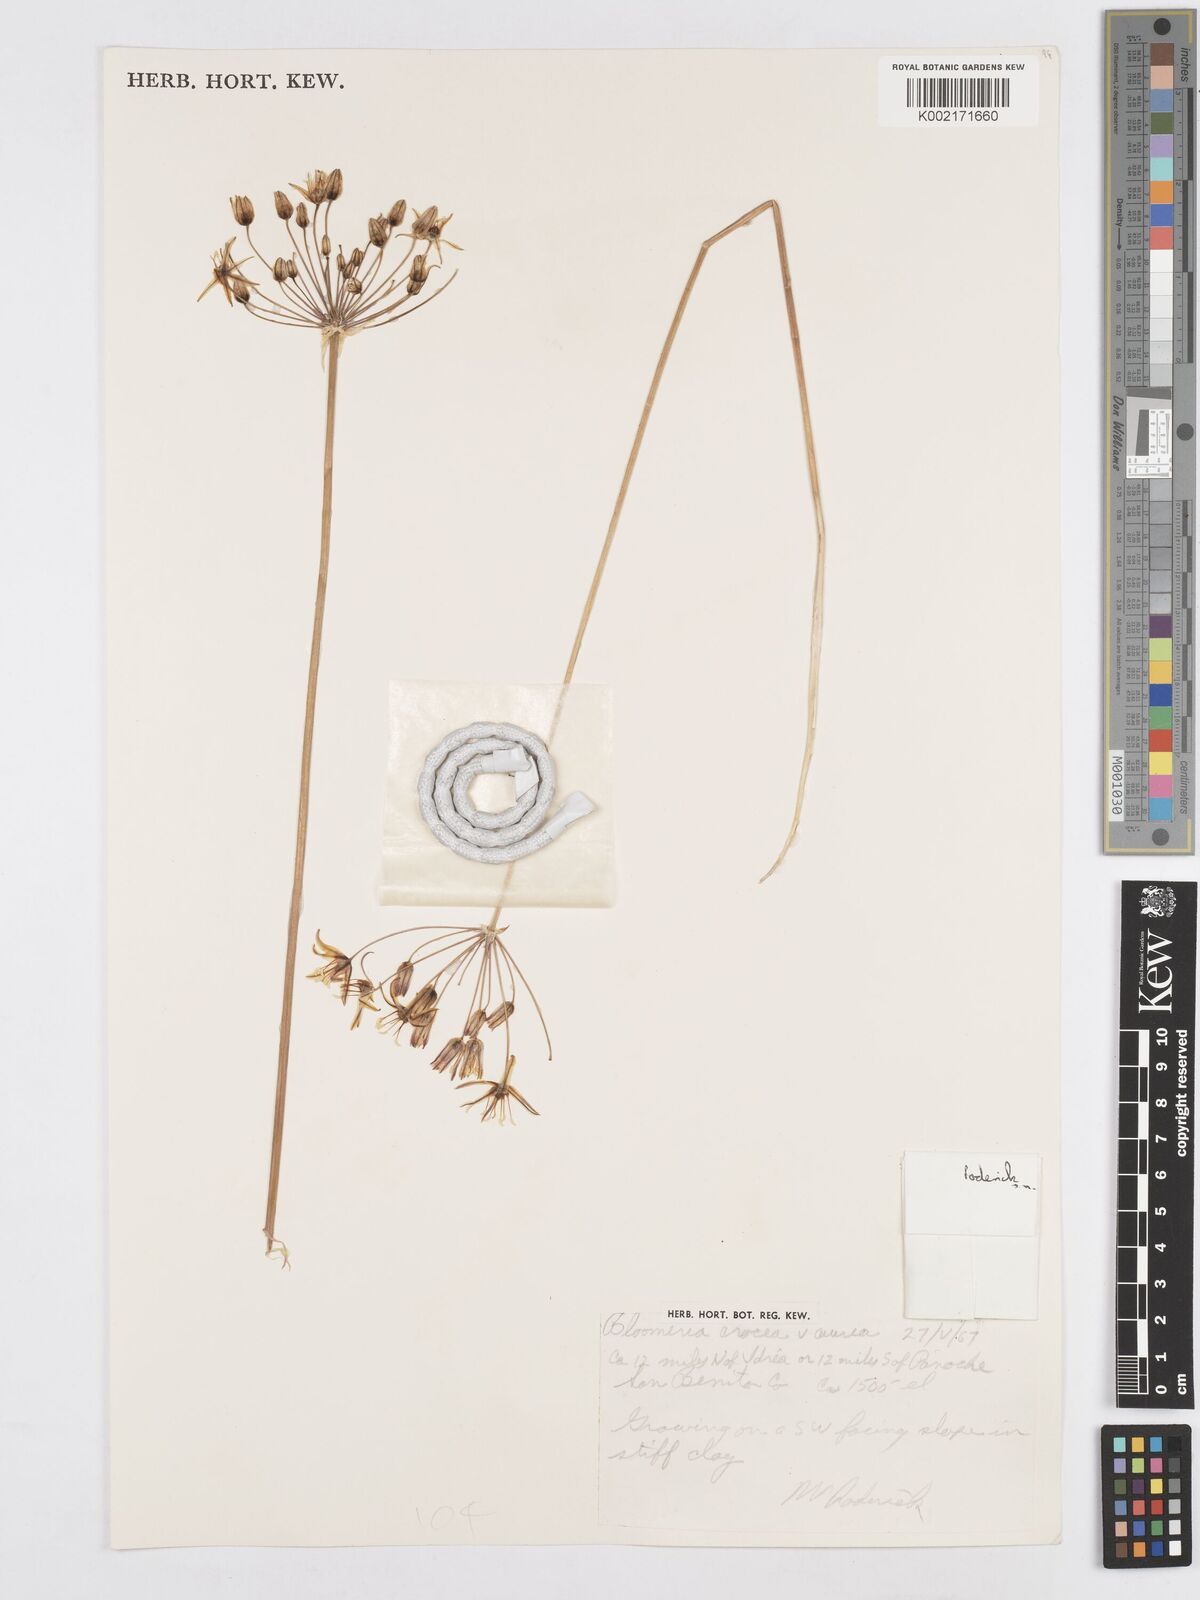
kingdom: Plantae
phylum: Tracheophyta
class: Liliopsida
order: Asparagales
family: Asparagaceae
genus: Bloomeria
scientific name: Bloomeria crocea
